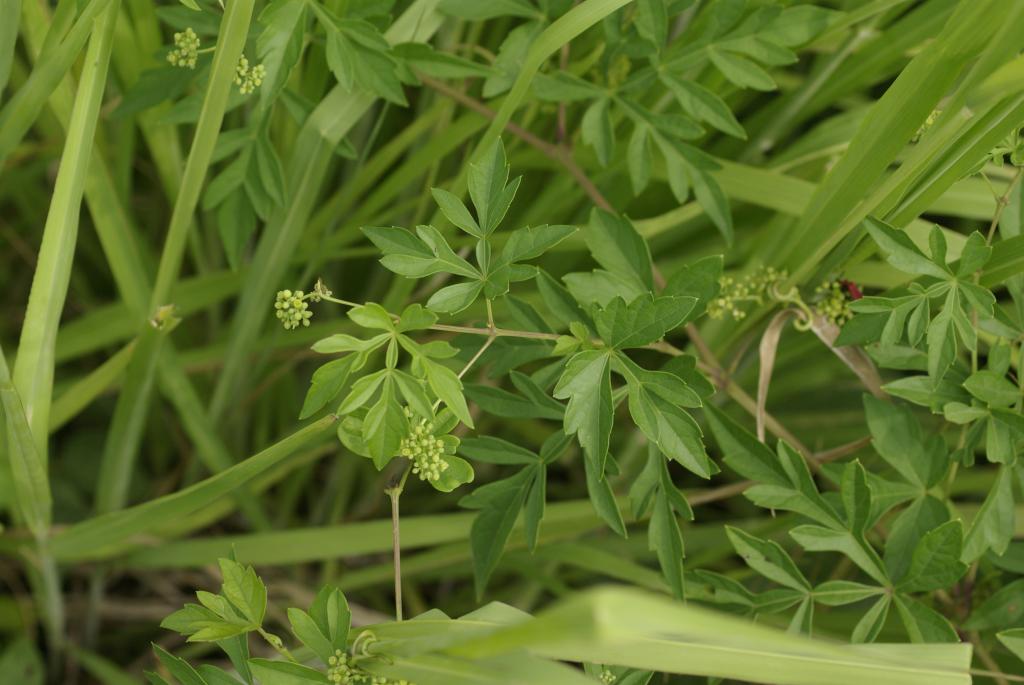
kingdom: Plantae
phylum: Tracheophyta
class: Magnoliopsida
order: Vitales
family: Vitaceae
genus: Ampelopsis
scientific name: Ampelopsis japonica
